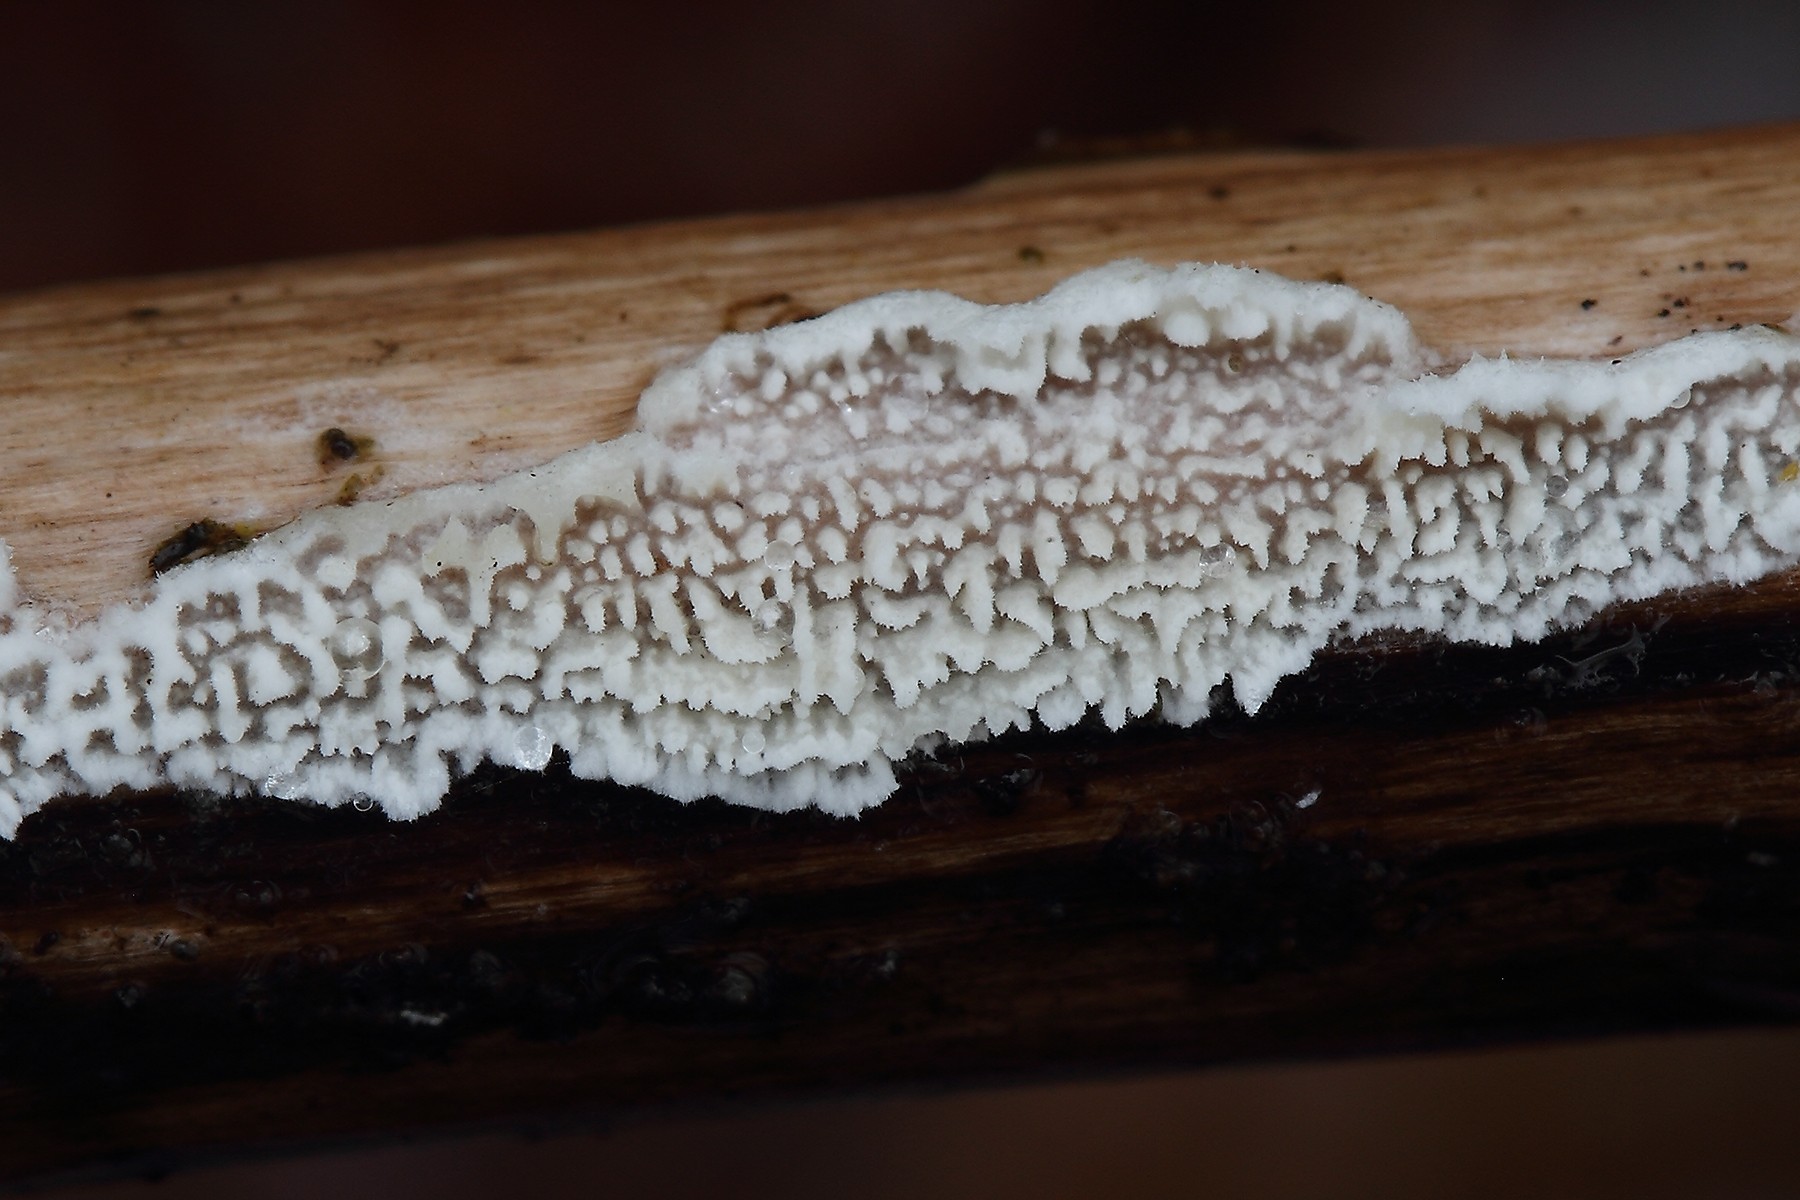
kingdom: Fungi
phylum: Basidiomycota
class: Agaricomycetes
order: Polyporales
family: Steccherinaceae
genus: Steccherinum
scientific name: Steccherinum oreophilum
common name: kvist-skønpig
